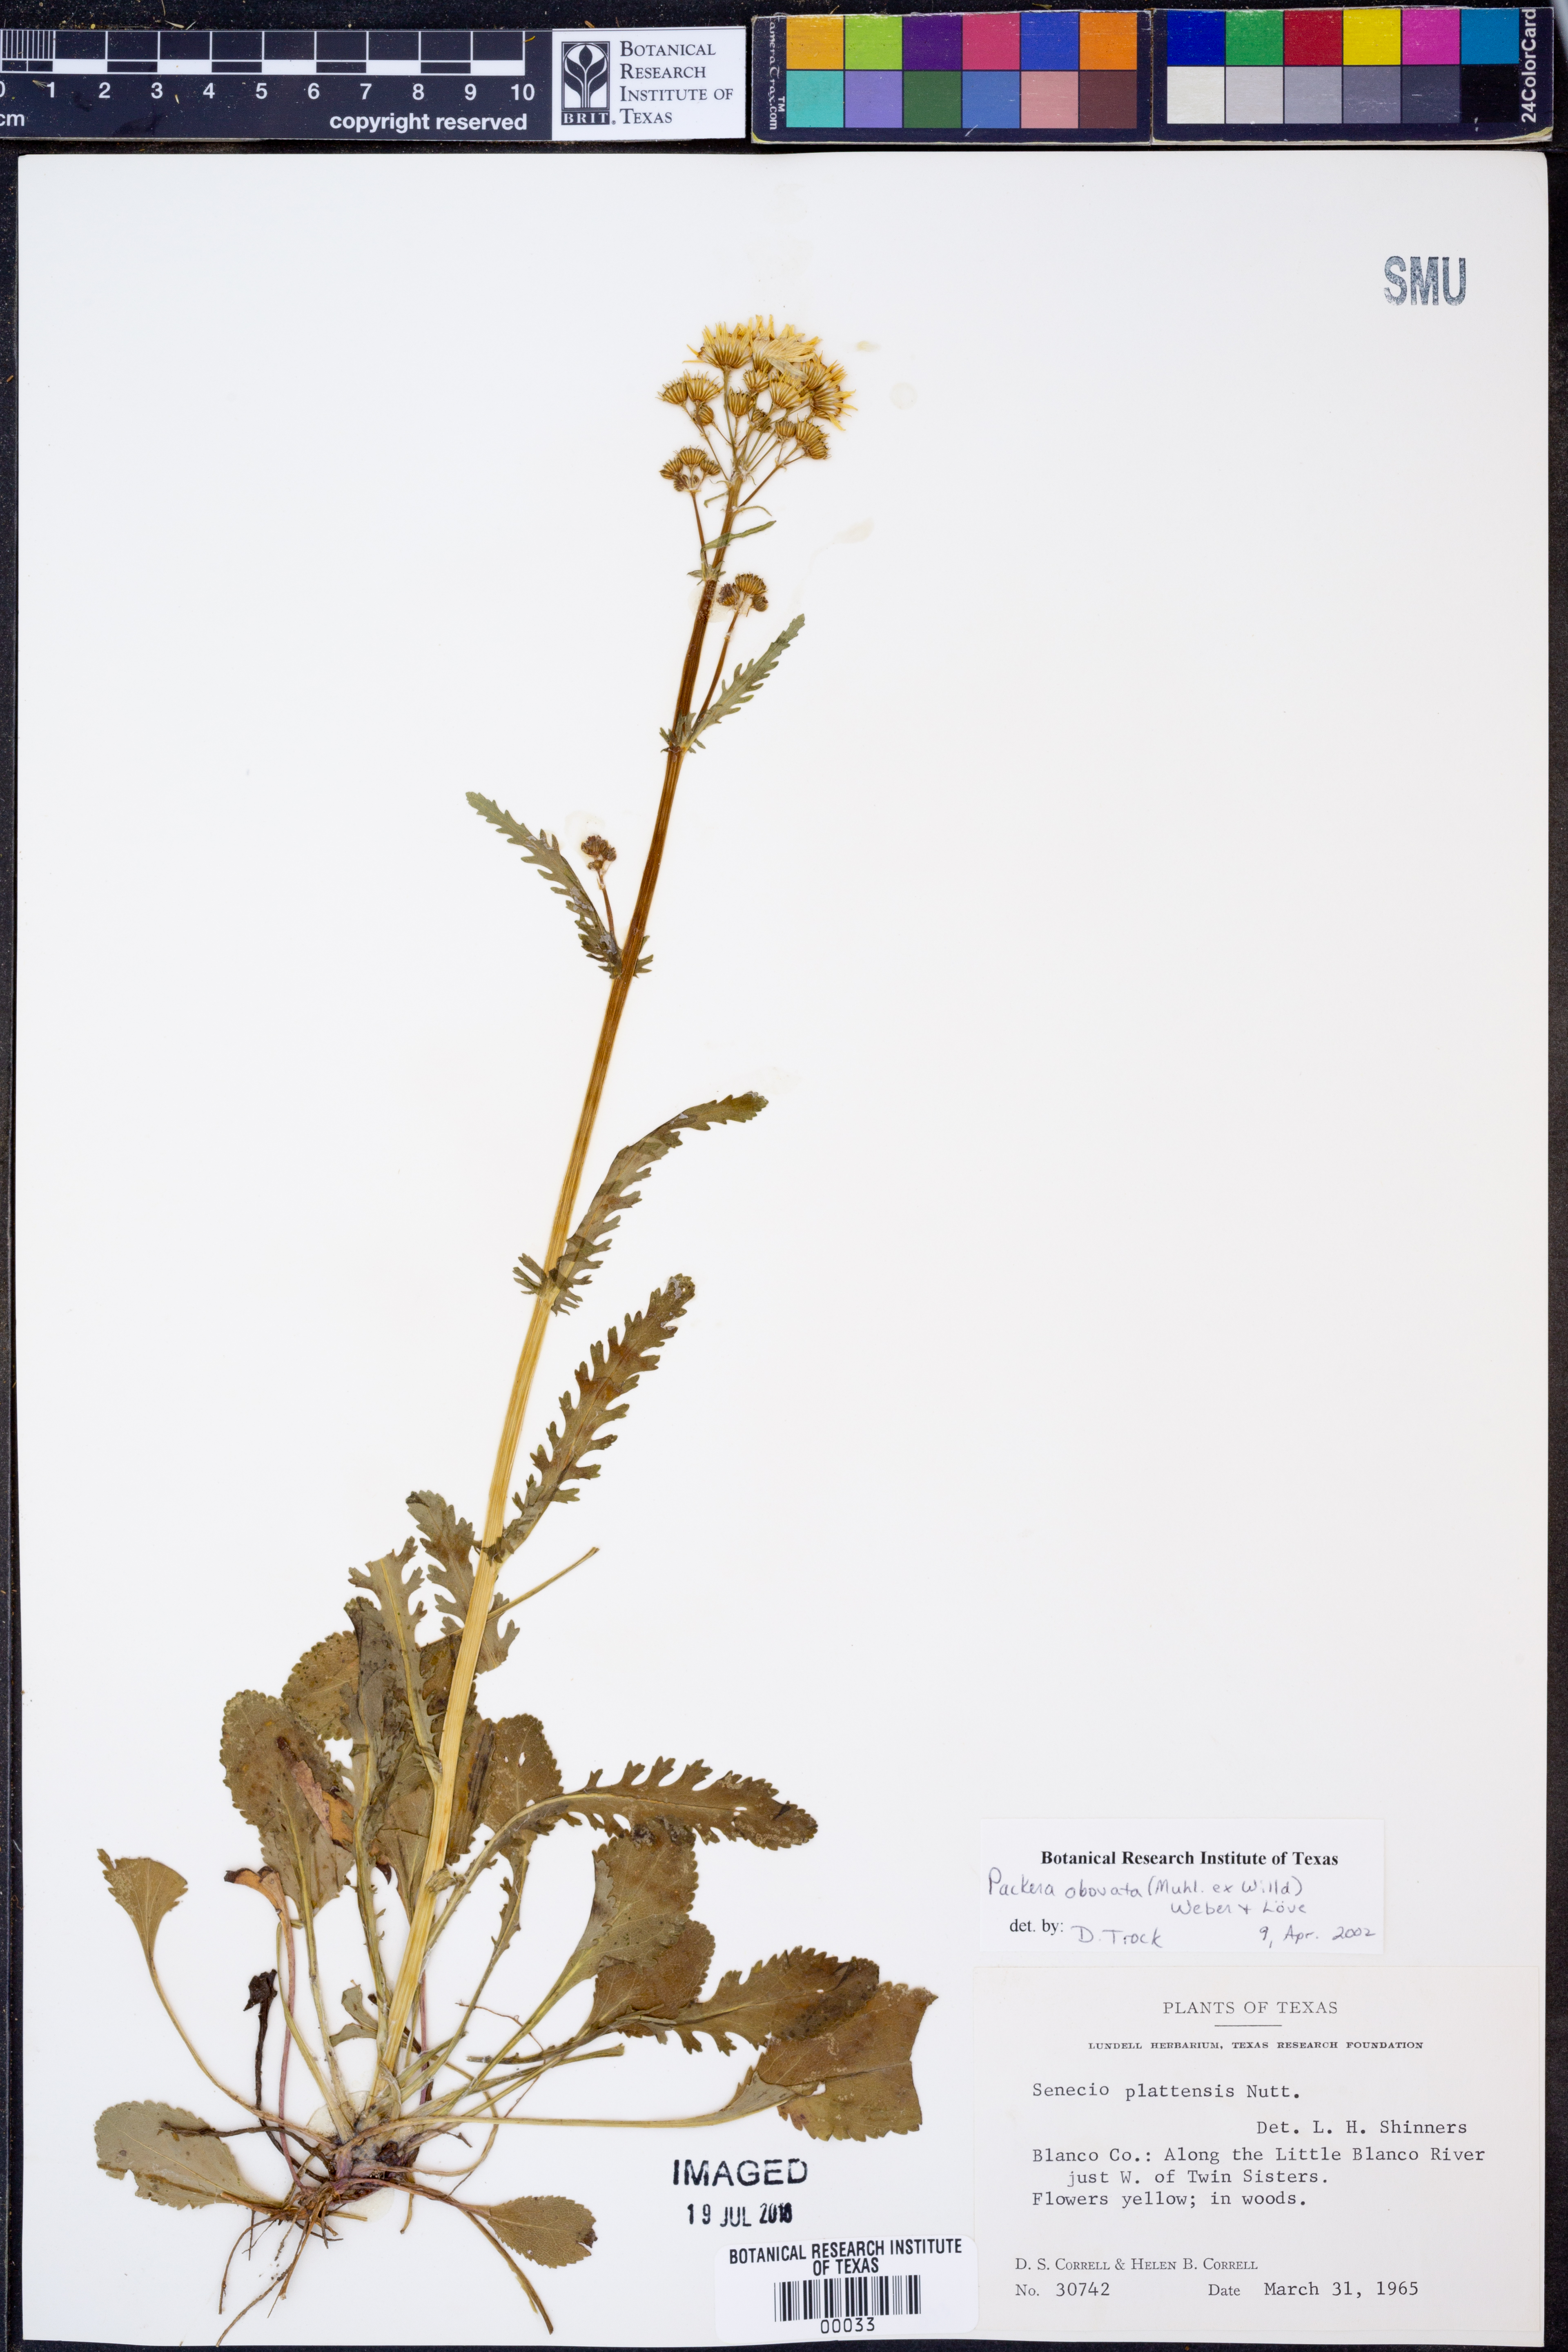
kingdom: Plantae
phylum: Tracheophyta
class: Magnoliopsida
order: Asterales
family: Asteraceae
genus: Packera
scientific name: Packera obovata
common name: Round-leaf ragwort
